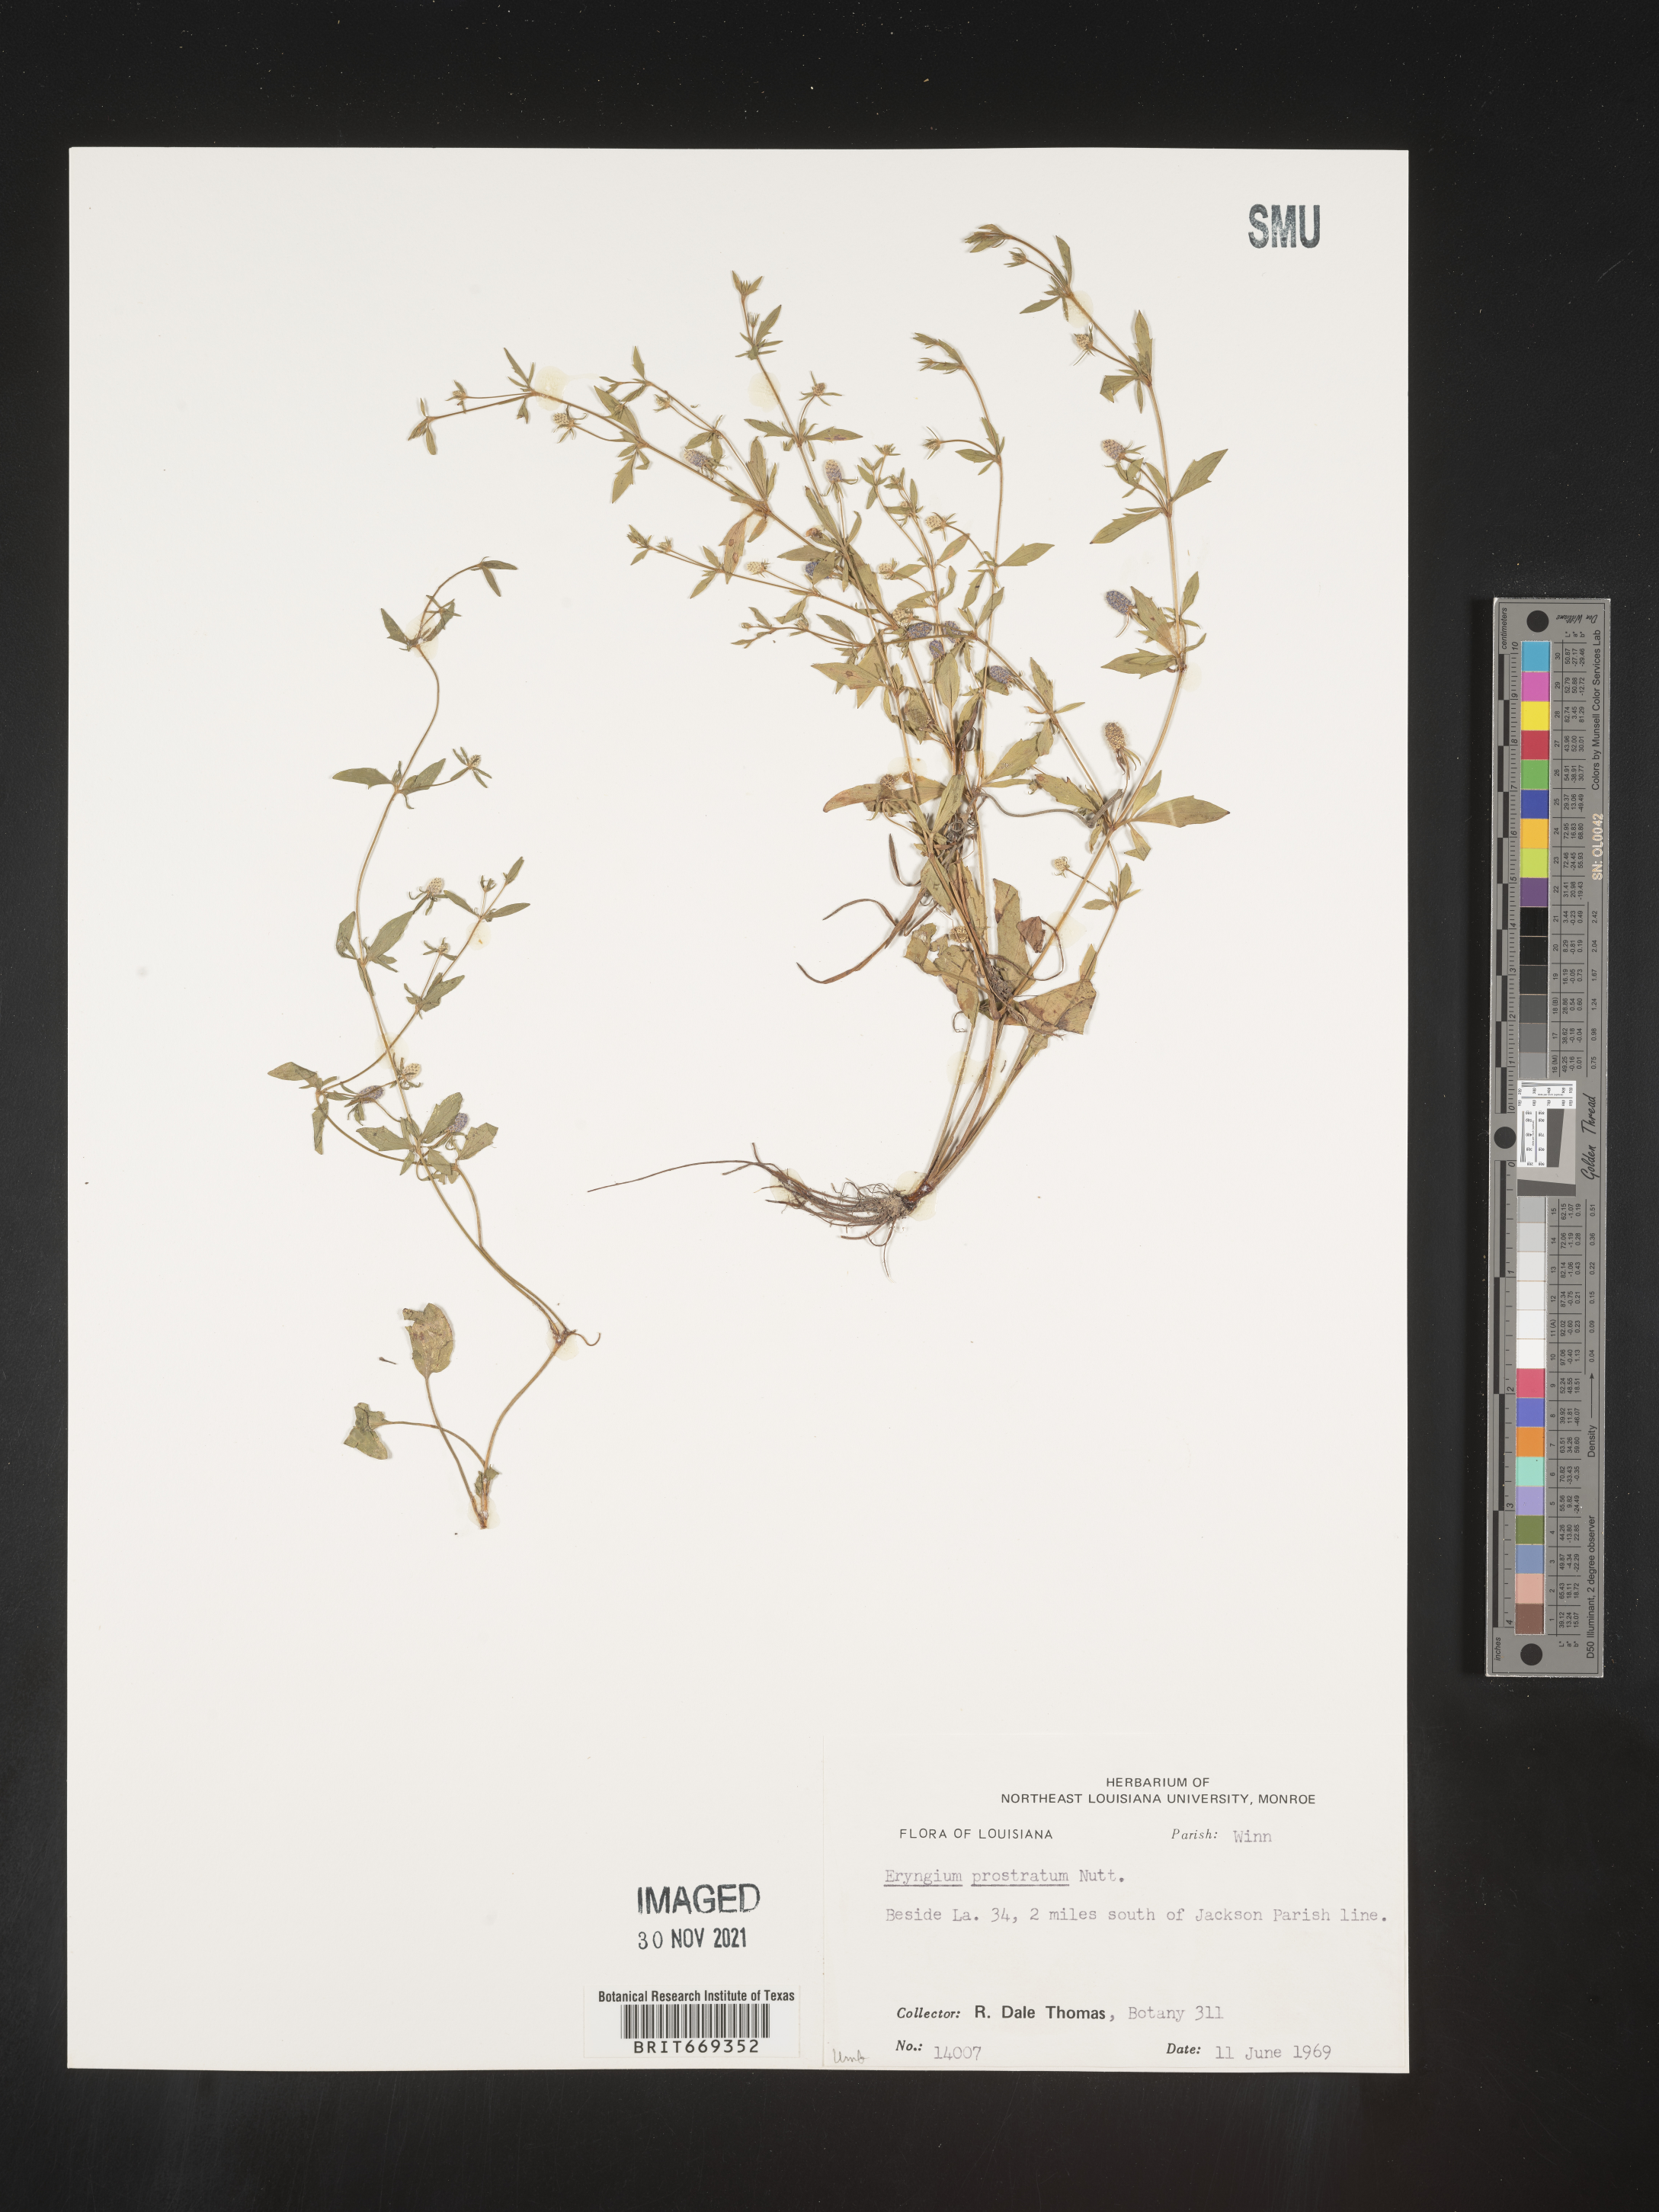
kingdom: Plantae
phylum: Tracheophyta
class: Magnoliopsida
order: Apiales
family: Apiaceae
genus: Eryngium
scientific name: Eryngium prostratum
